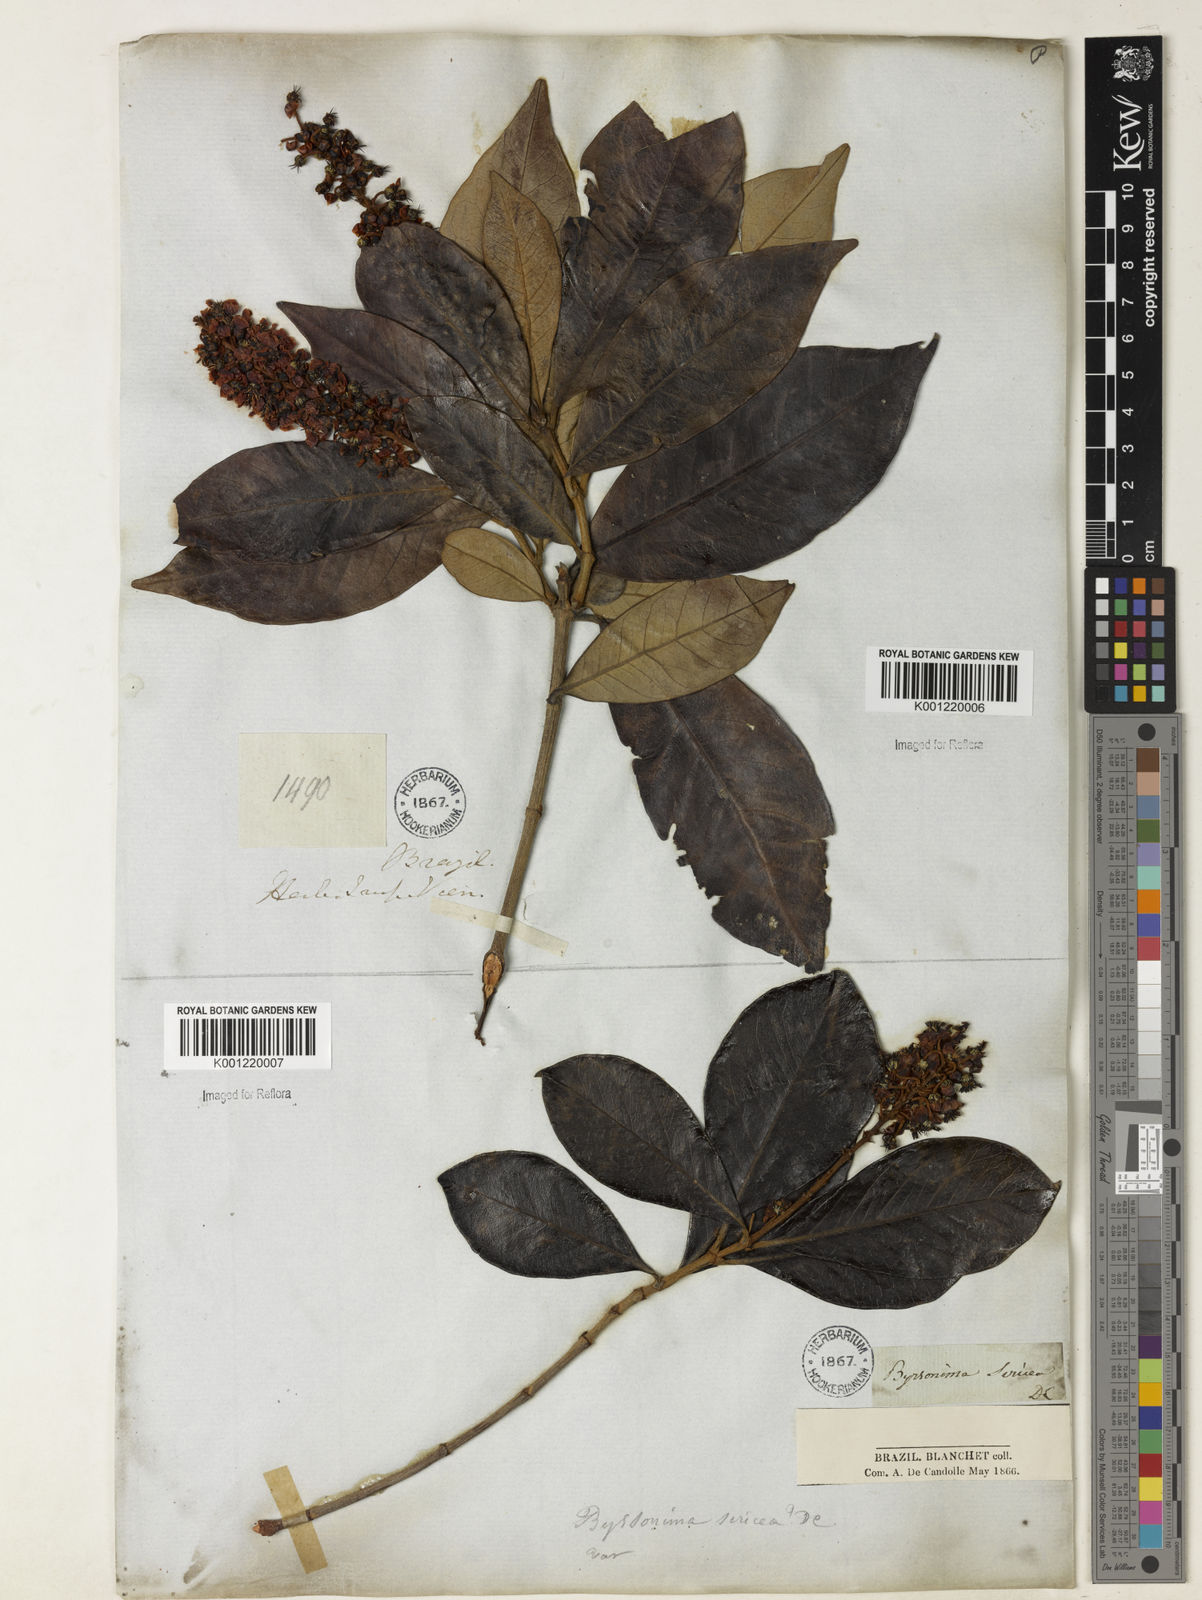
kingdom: Plantae
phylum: Tracheophyta
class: Magnoliopsida
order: Malpighiales
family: Malpighiaceae
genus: Byrsonima
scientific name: Byrsonima sericea
